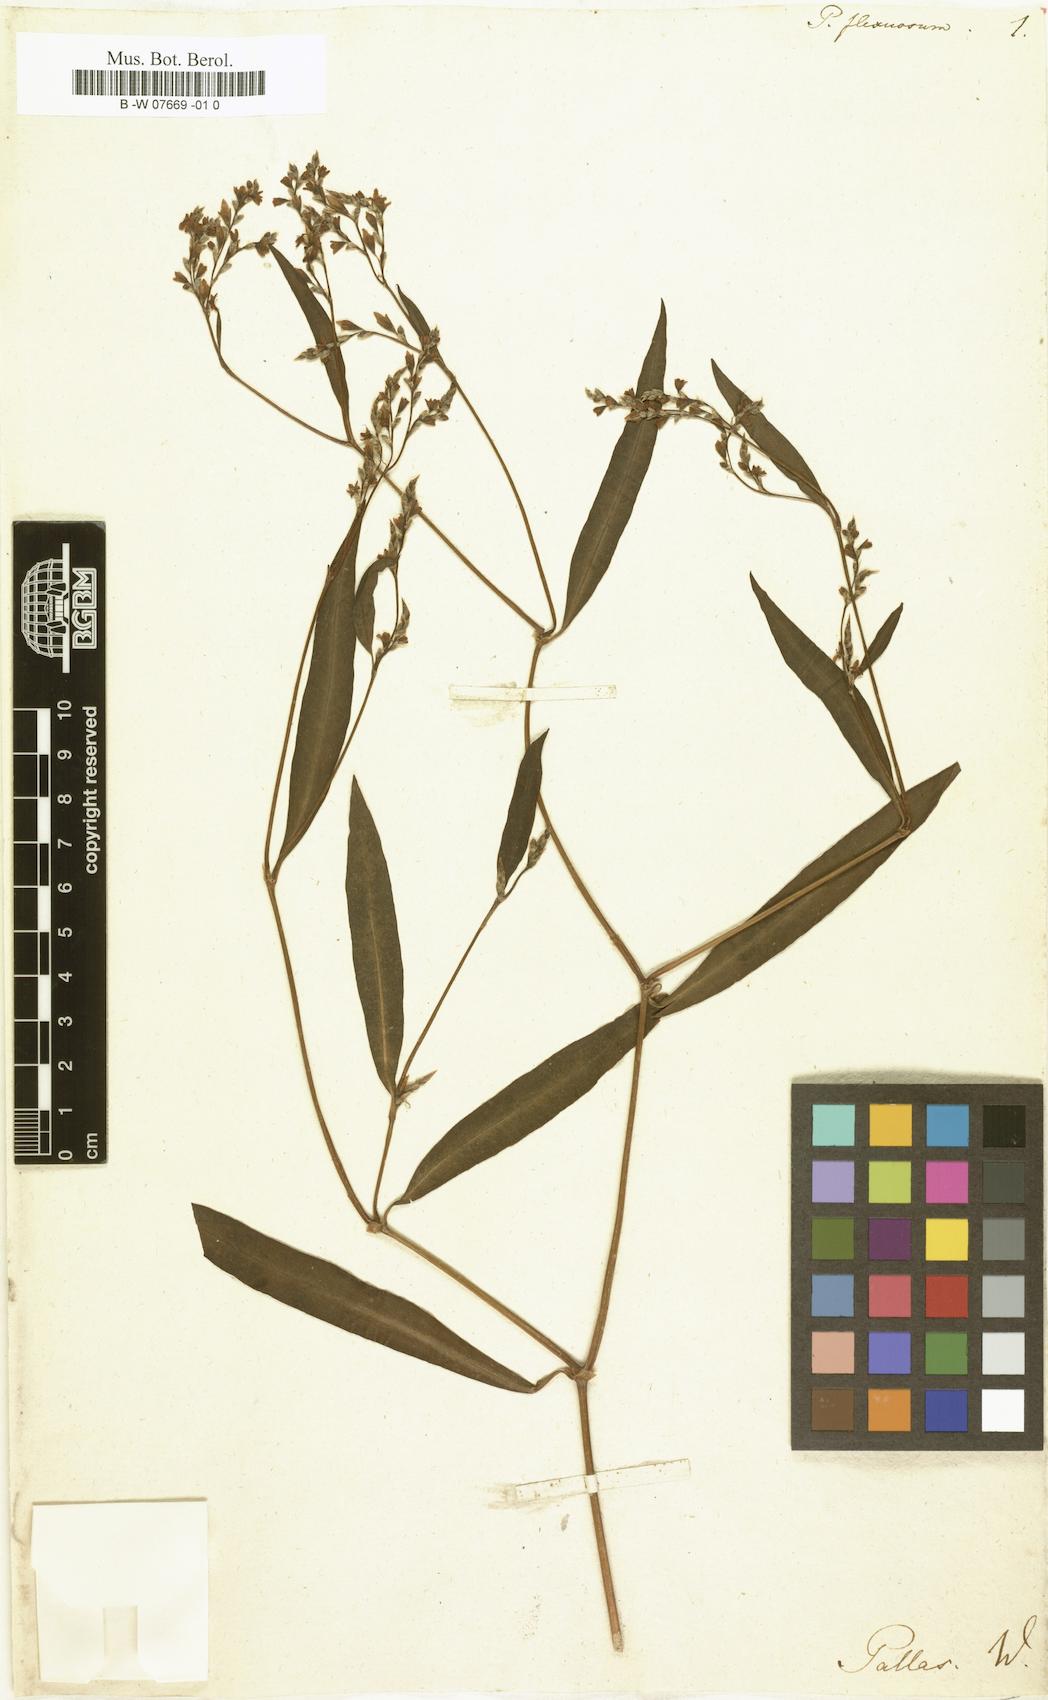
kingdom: Plantae
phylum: Tracheophyta
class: Magnoliopsida
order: Caryophyllales
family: Polygonaceae
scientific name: Polygonaceae
